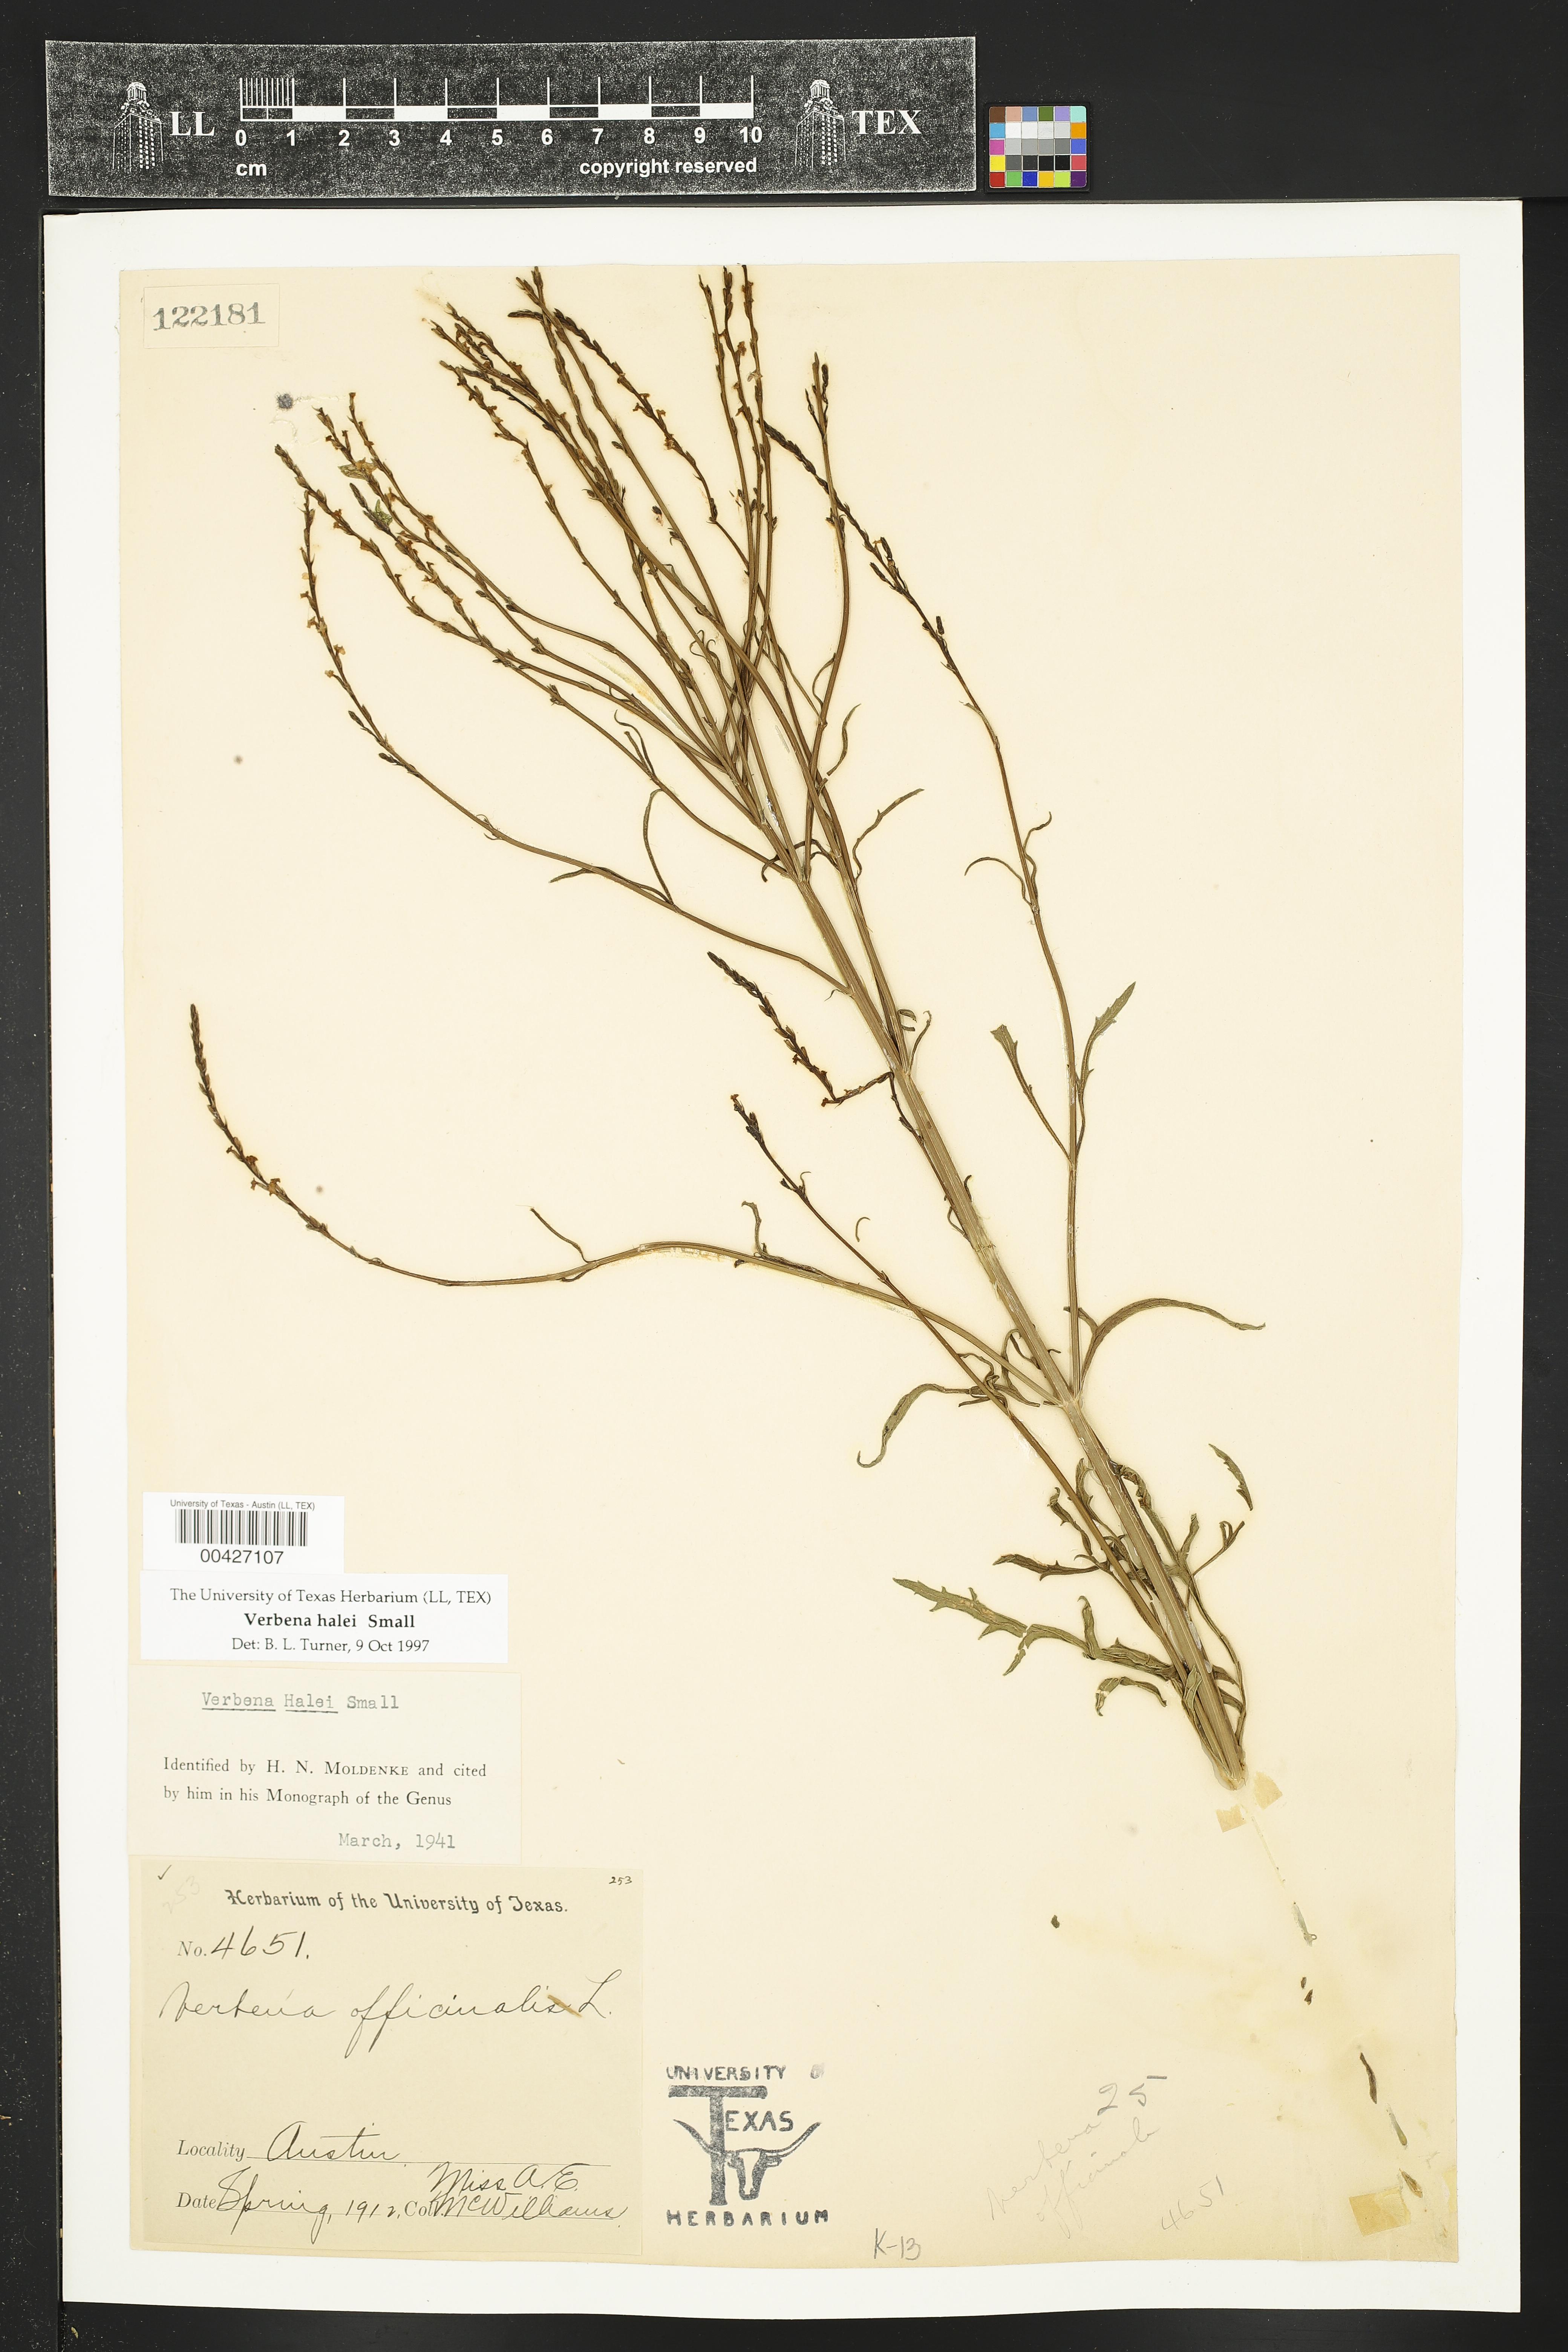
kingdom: Plantae
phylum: Tracheophyta
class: Magnoliopsida
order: Lamiales
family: Verbenaceae
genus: Verbena
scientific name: Verbena halei
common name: Texas vervain
